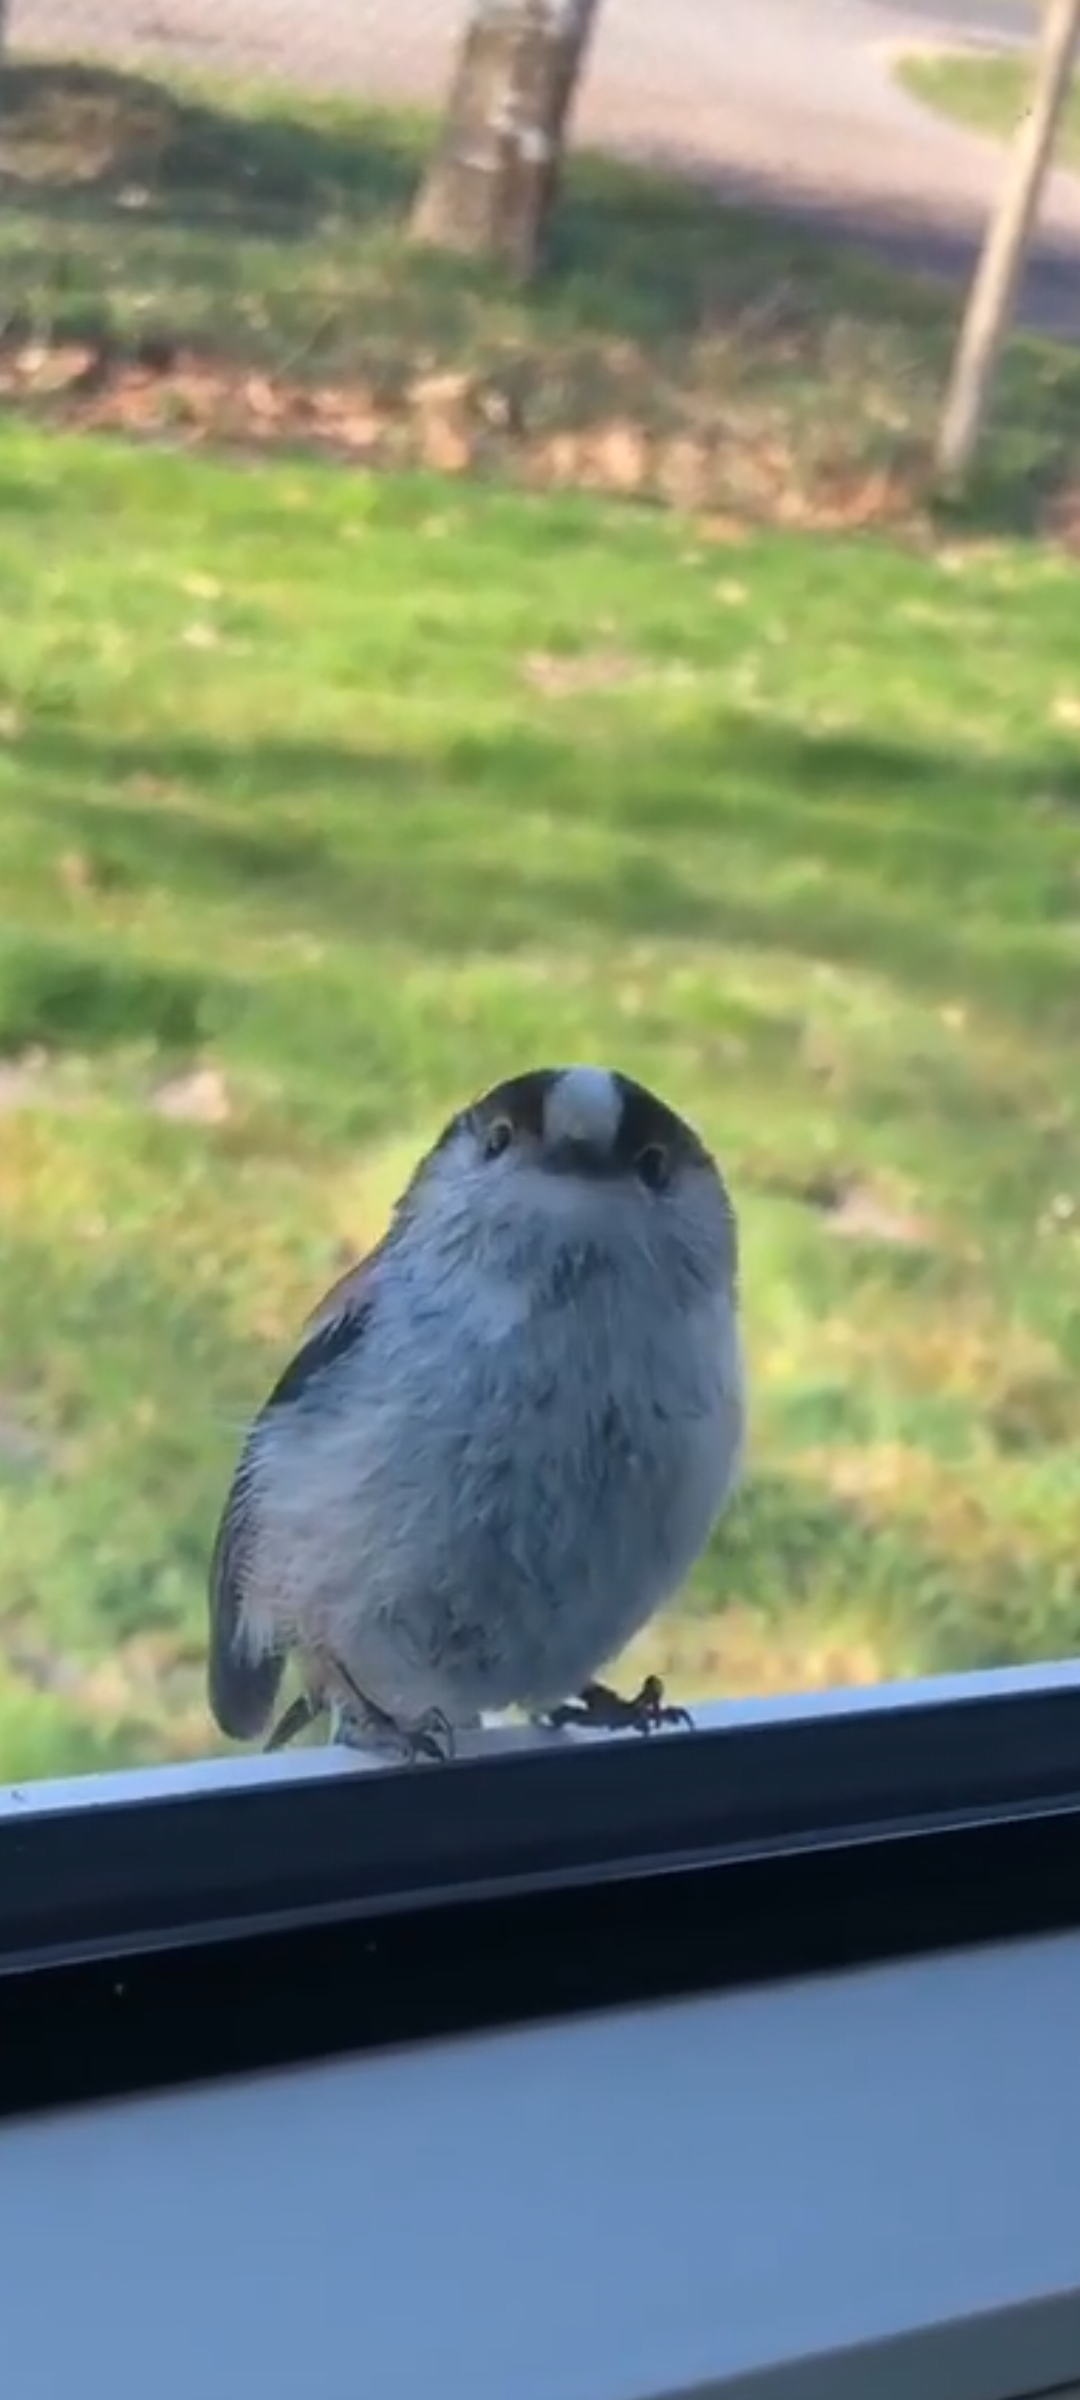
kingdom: Animalia
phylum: Chordata
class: Aves
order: Passeriformes
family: Aegithalidae
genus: Aegithalos
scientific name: Aegithalos caudatus
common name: Halemejse
